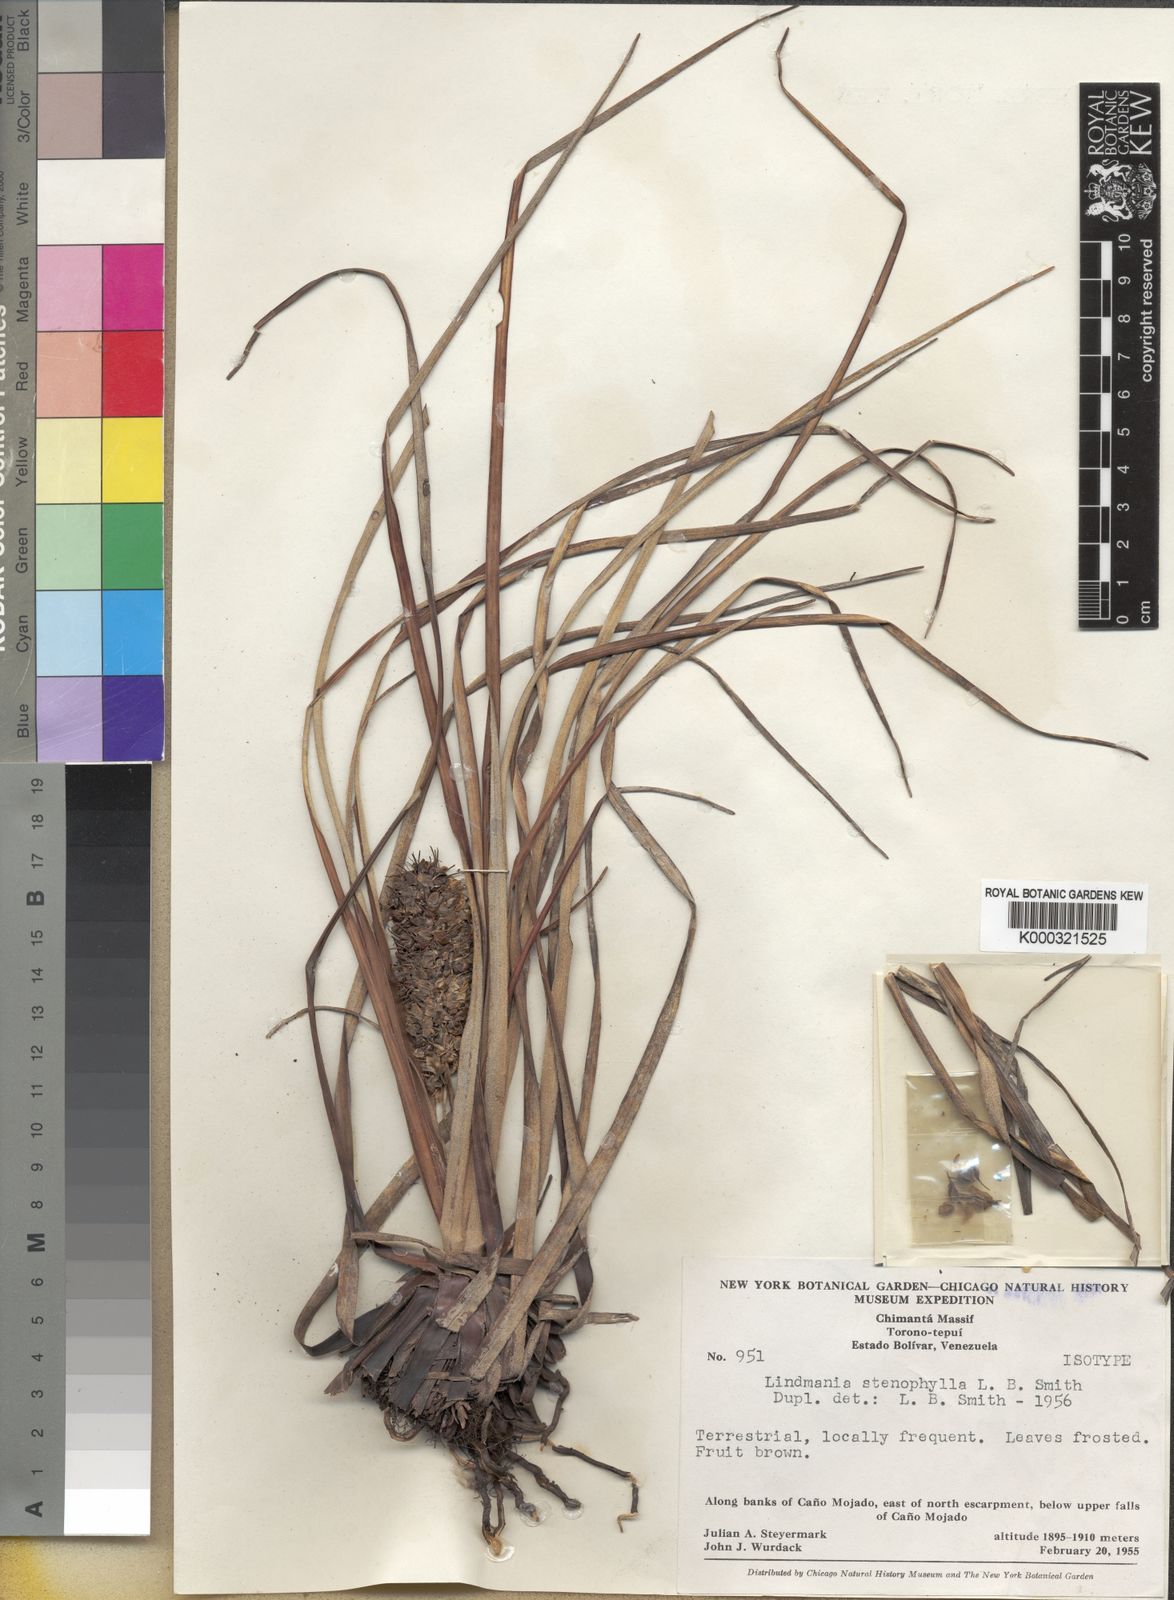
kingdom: Plantae
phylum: Tracheophyta
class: Liliopsida
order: Poales
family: Bromeliaceae
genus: Lindmania
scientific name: Lindmania stenophylla
